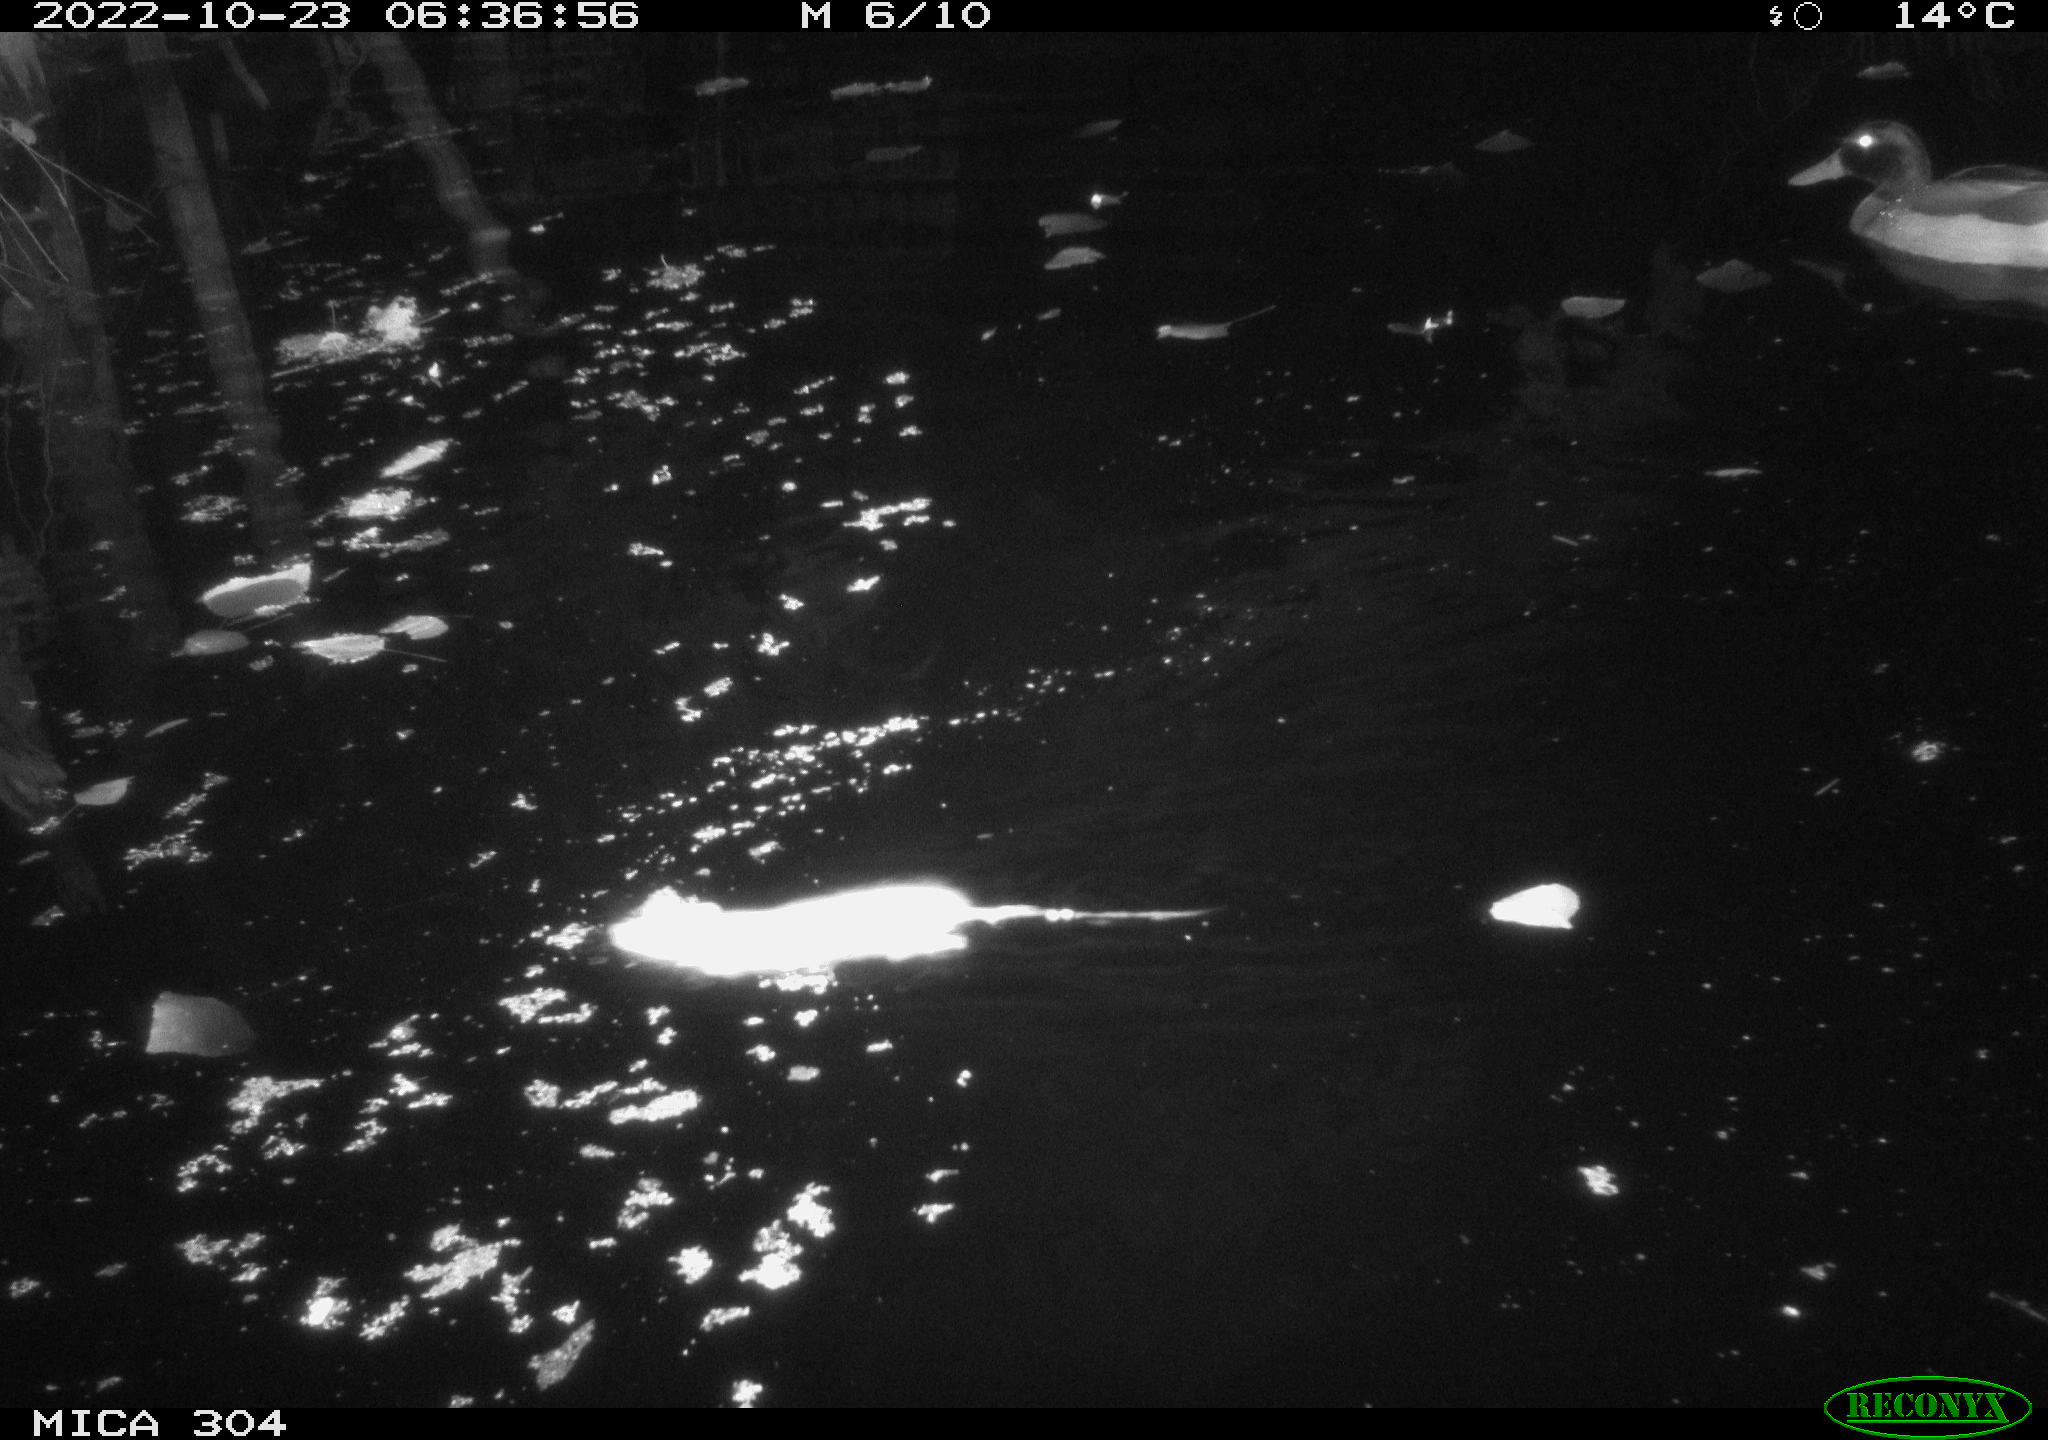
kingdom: Animalia
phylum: Chordata
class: Aves
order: Anseriformes
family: Anatidae
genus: Anas
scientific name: Anas
